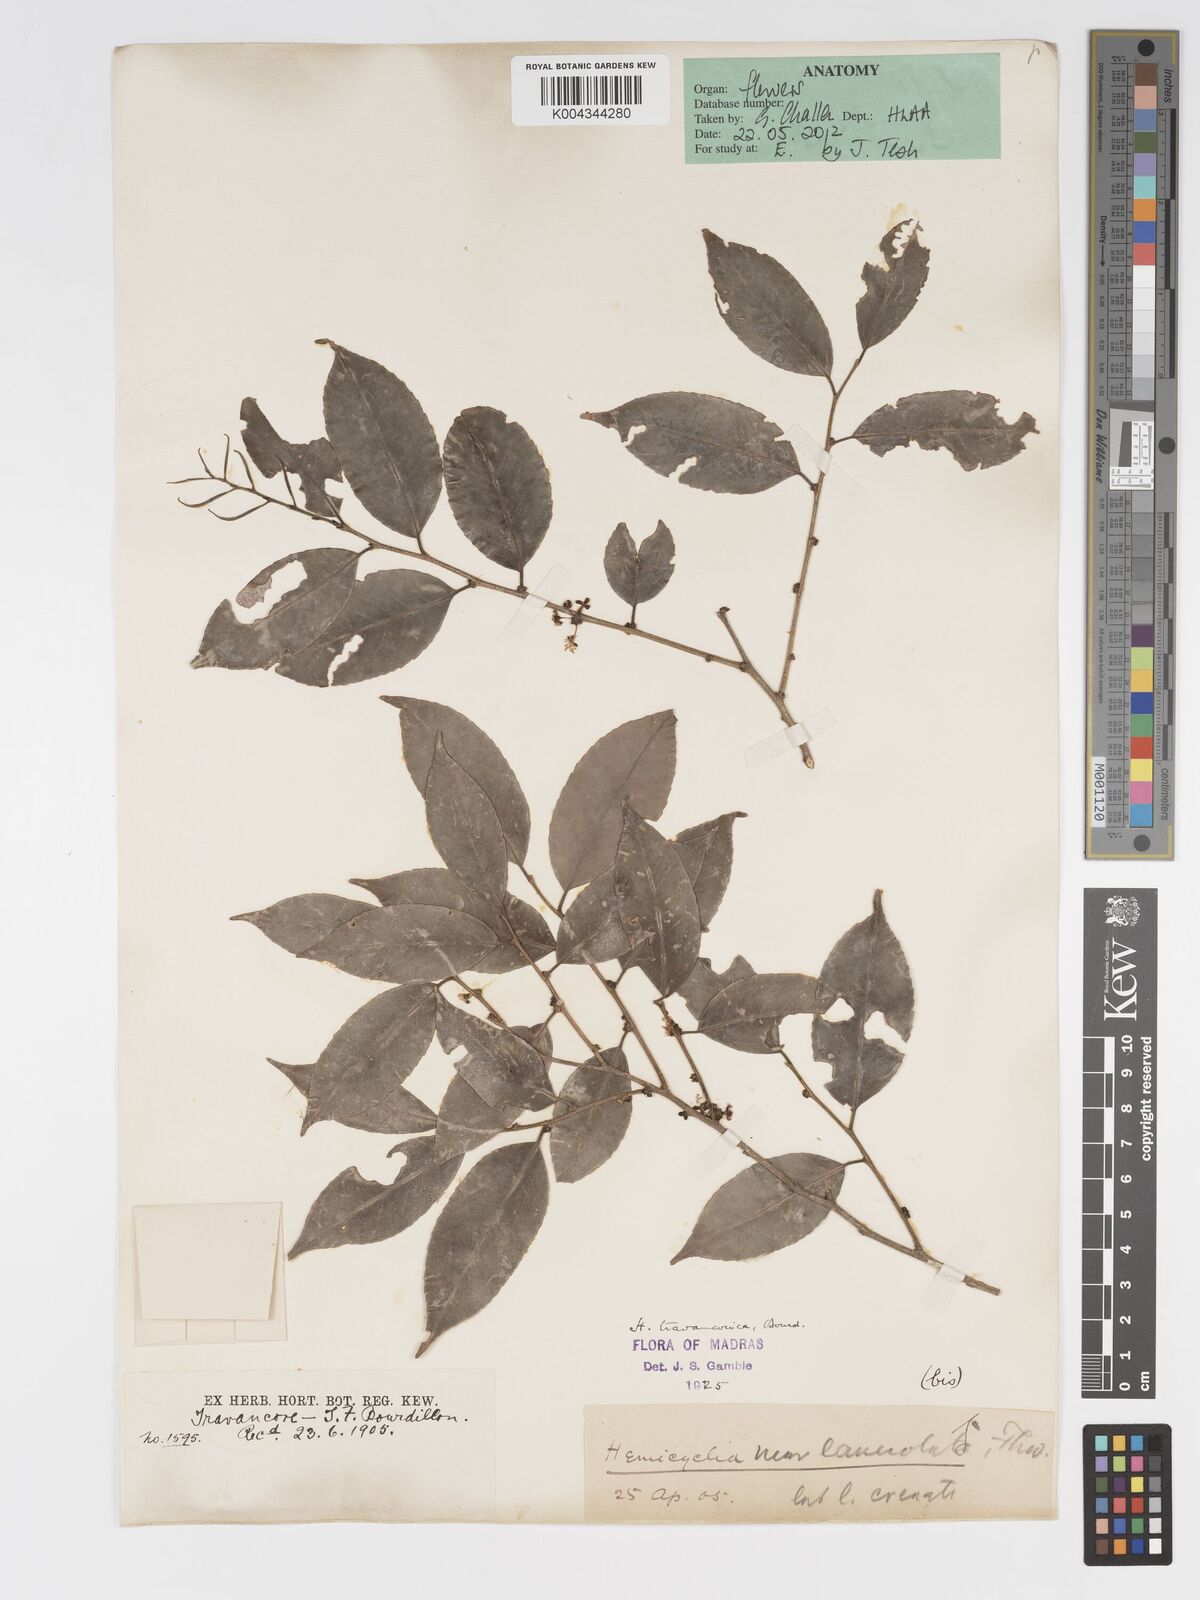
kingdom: Plantae
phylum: Tracheophyta
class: Magnoliopsida
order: Malpighiales
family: Putranjivaceae
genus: Drypetes
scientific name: Drypetes gardneri
